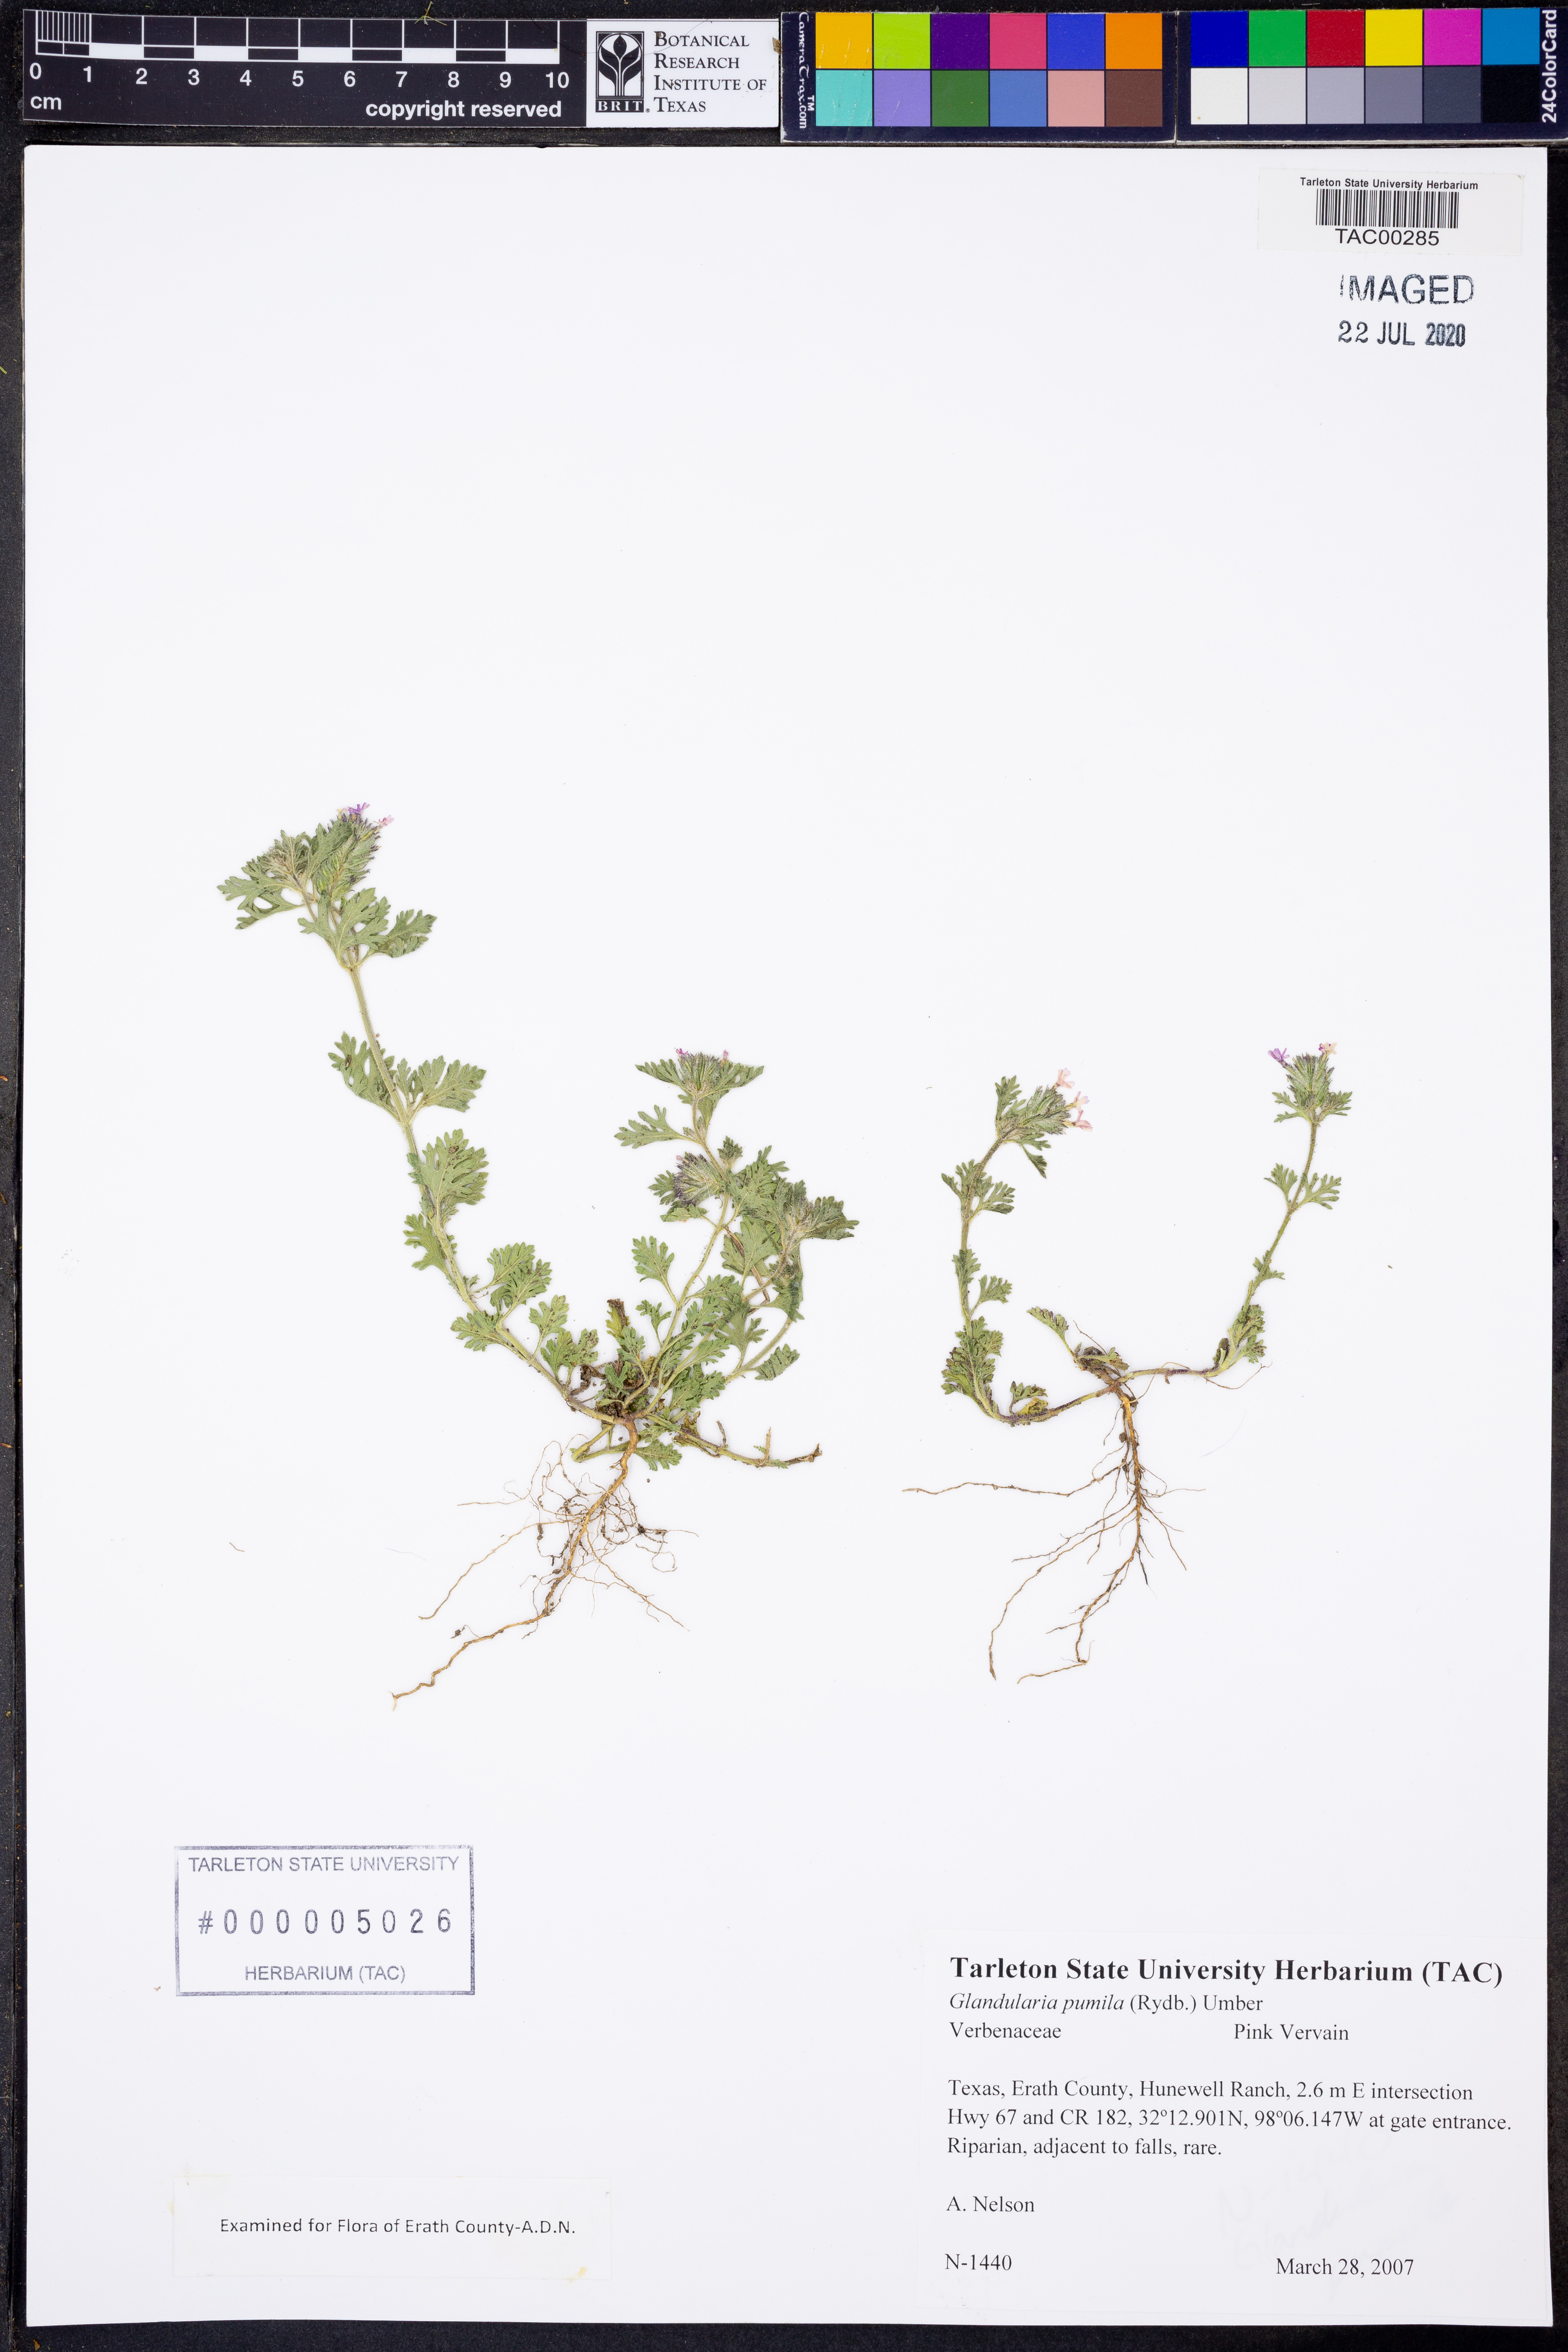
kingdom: Plantae
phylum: Tracheophyta
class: Magnoliopsida
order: Lamiales
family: Verbenaceae
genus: Verbena
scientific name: Verbena pumila
